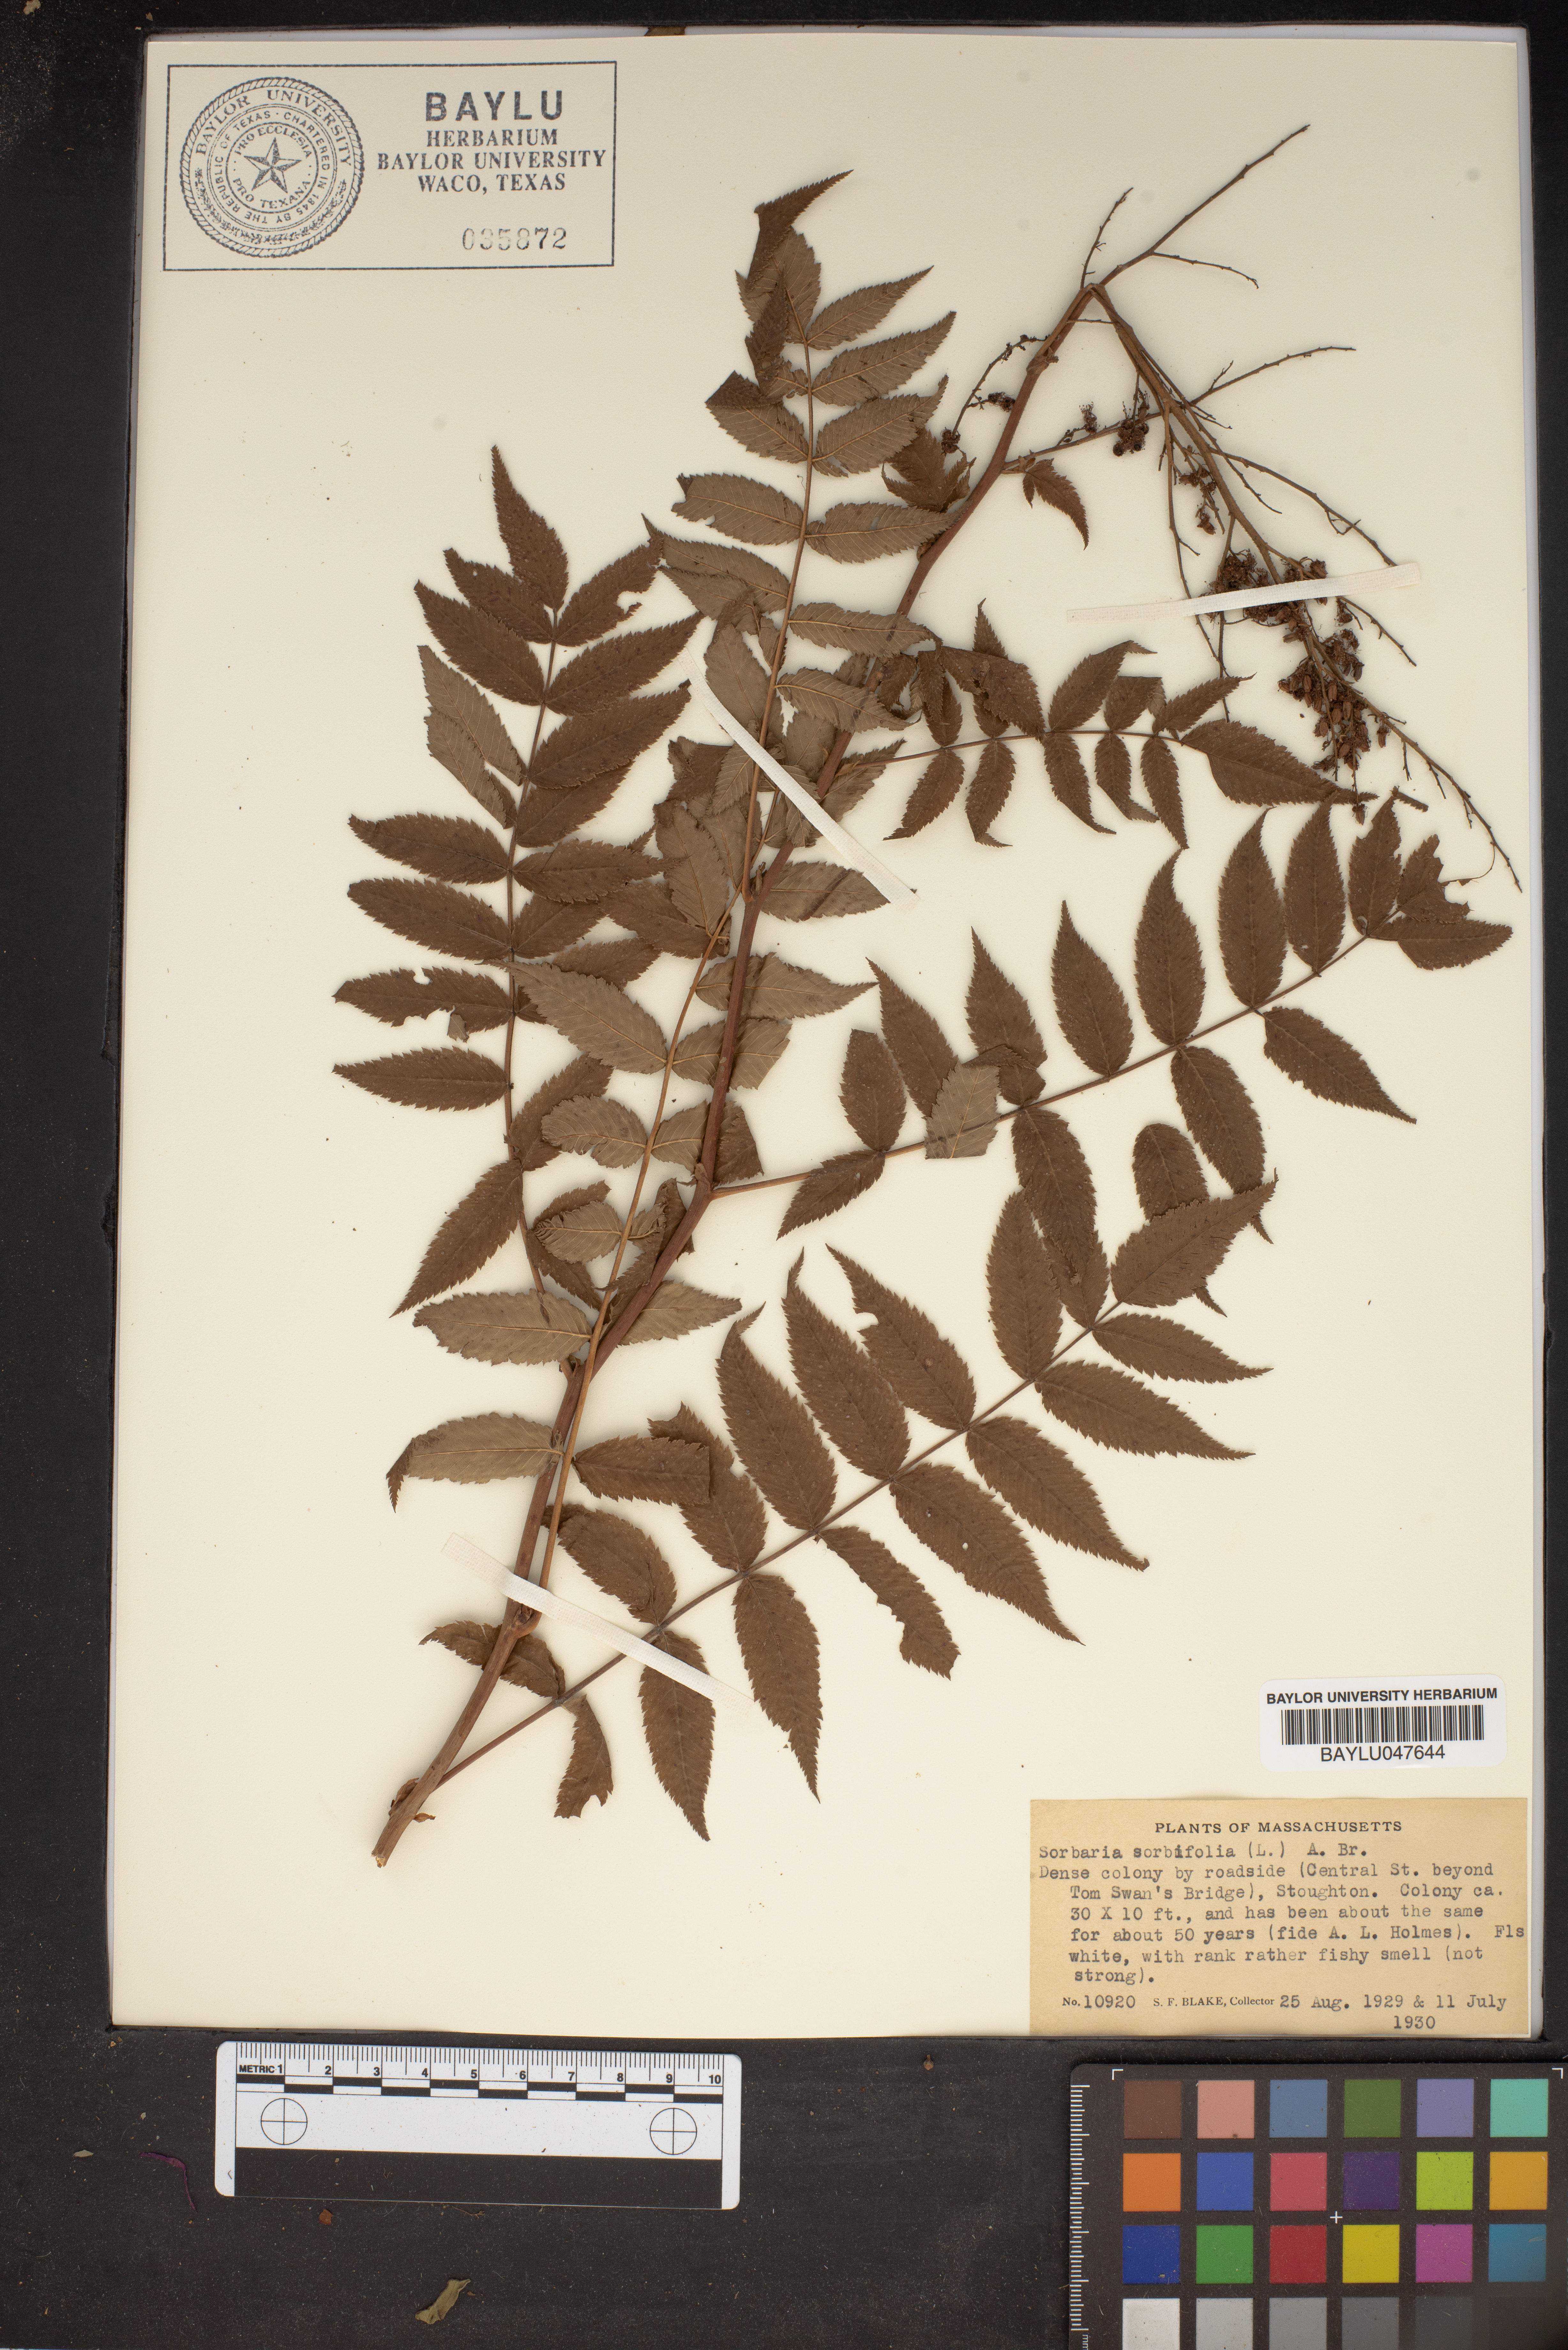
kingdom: Plantae
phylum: Tracheophyta
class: Magnoliopsida
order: Rosales
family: Rosaceae
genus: Sorbaria
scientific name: Sorbaria sorbifolia
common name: False spiraea
